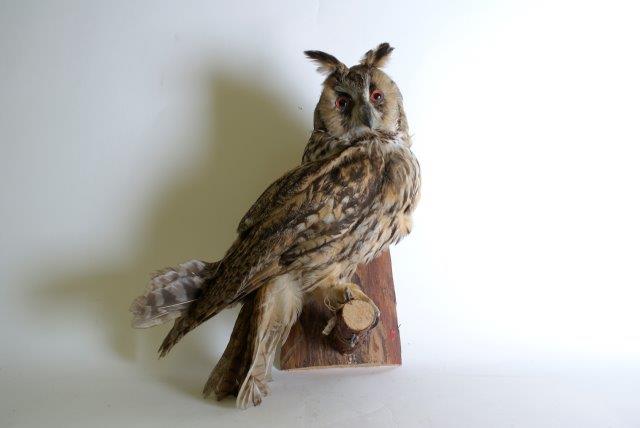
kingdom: Animalia
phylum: Chordata
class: Aves
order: Strigiformes
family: Strigidae
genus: Asio
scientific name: Asio otus
